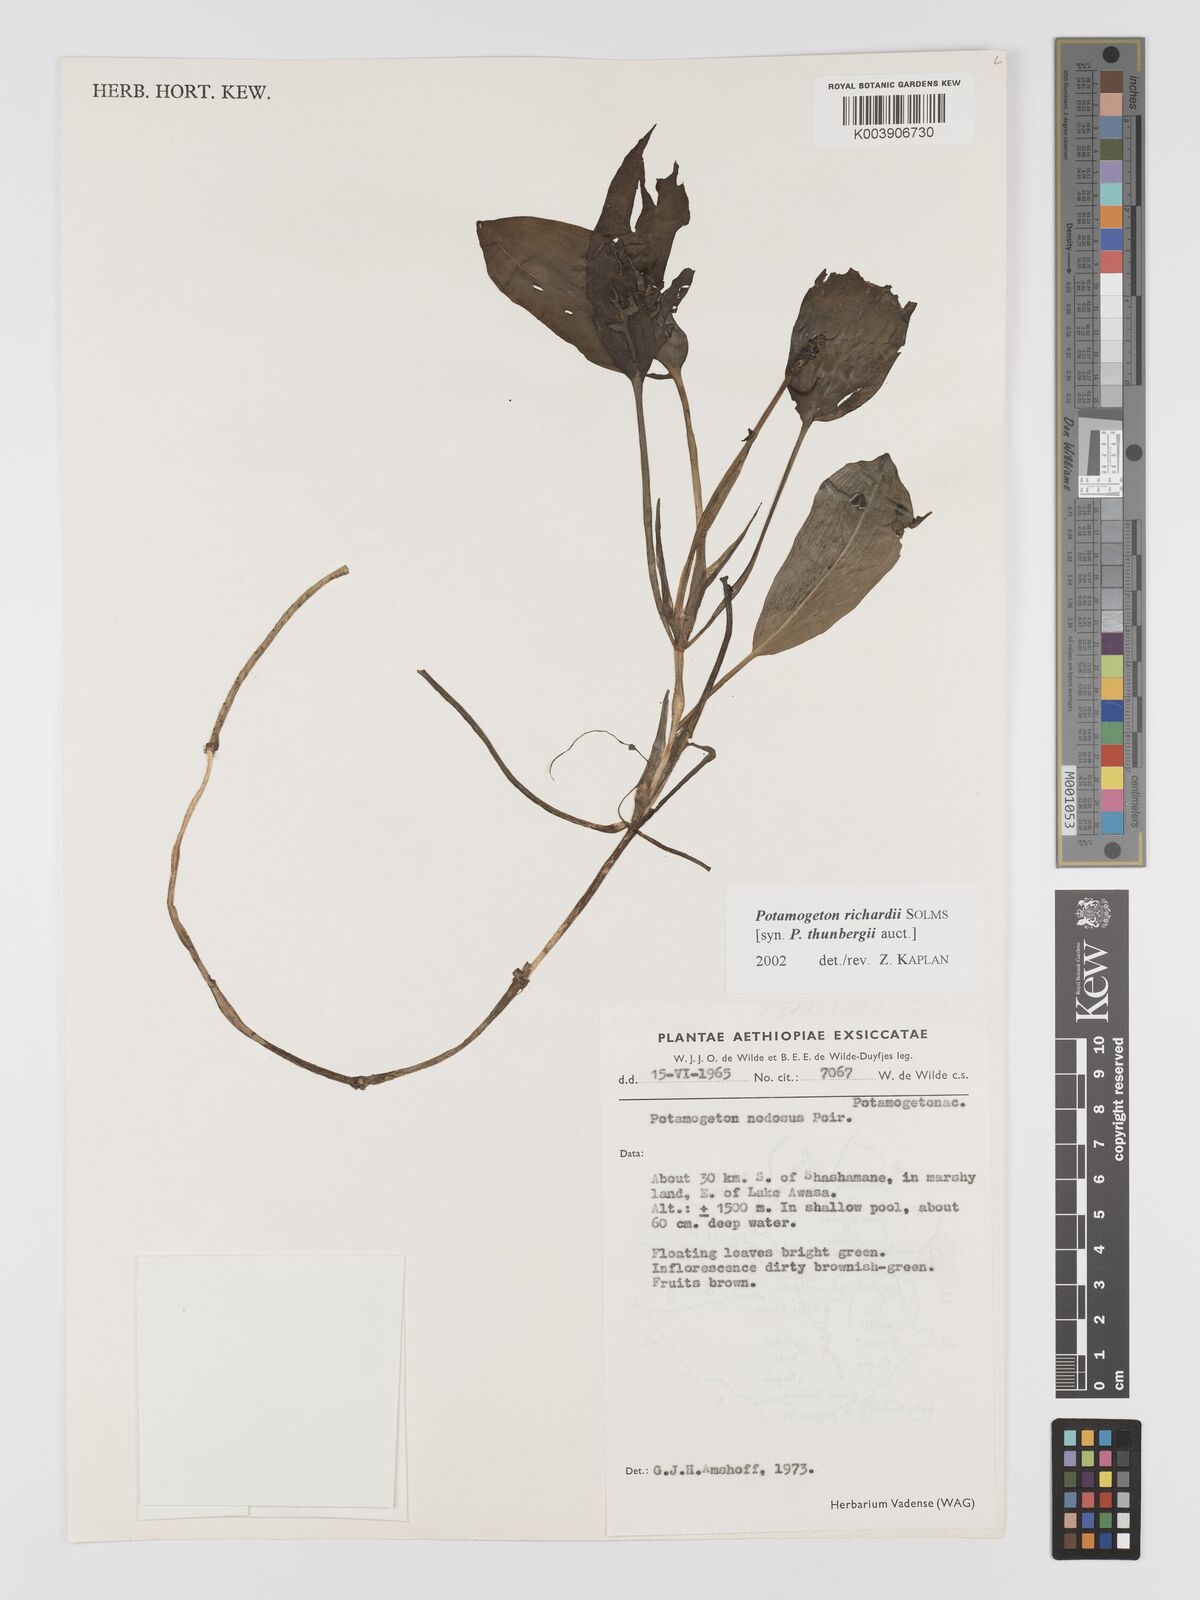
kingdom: Plantae
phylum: Tracheophyta
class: Liliopsida
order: Alismatales
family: Potamogetonaceae
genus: Potamogeton
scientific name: Potamogeton richardii
